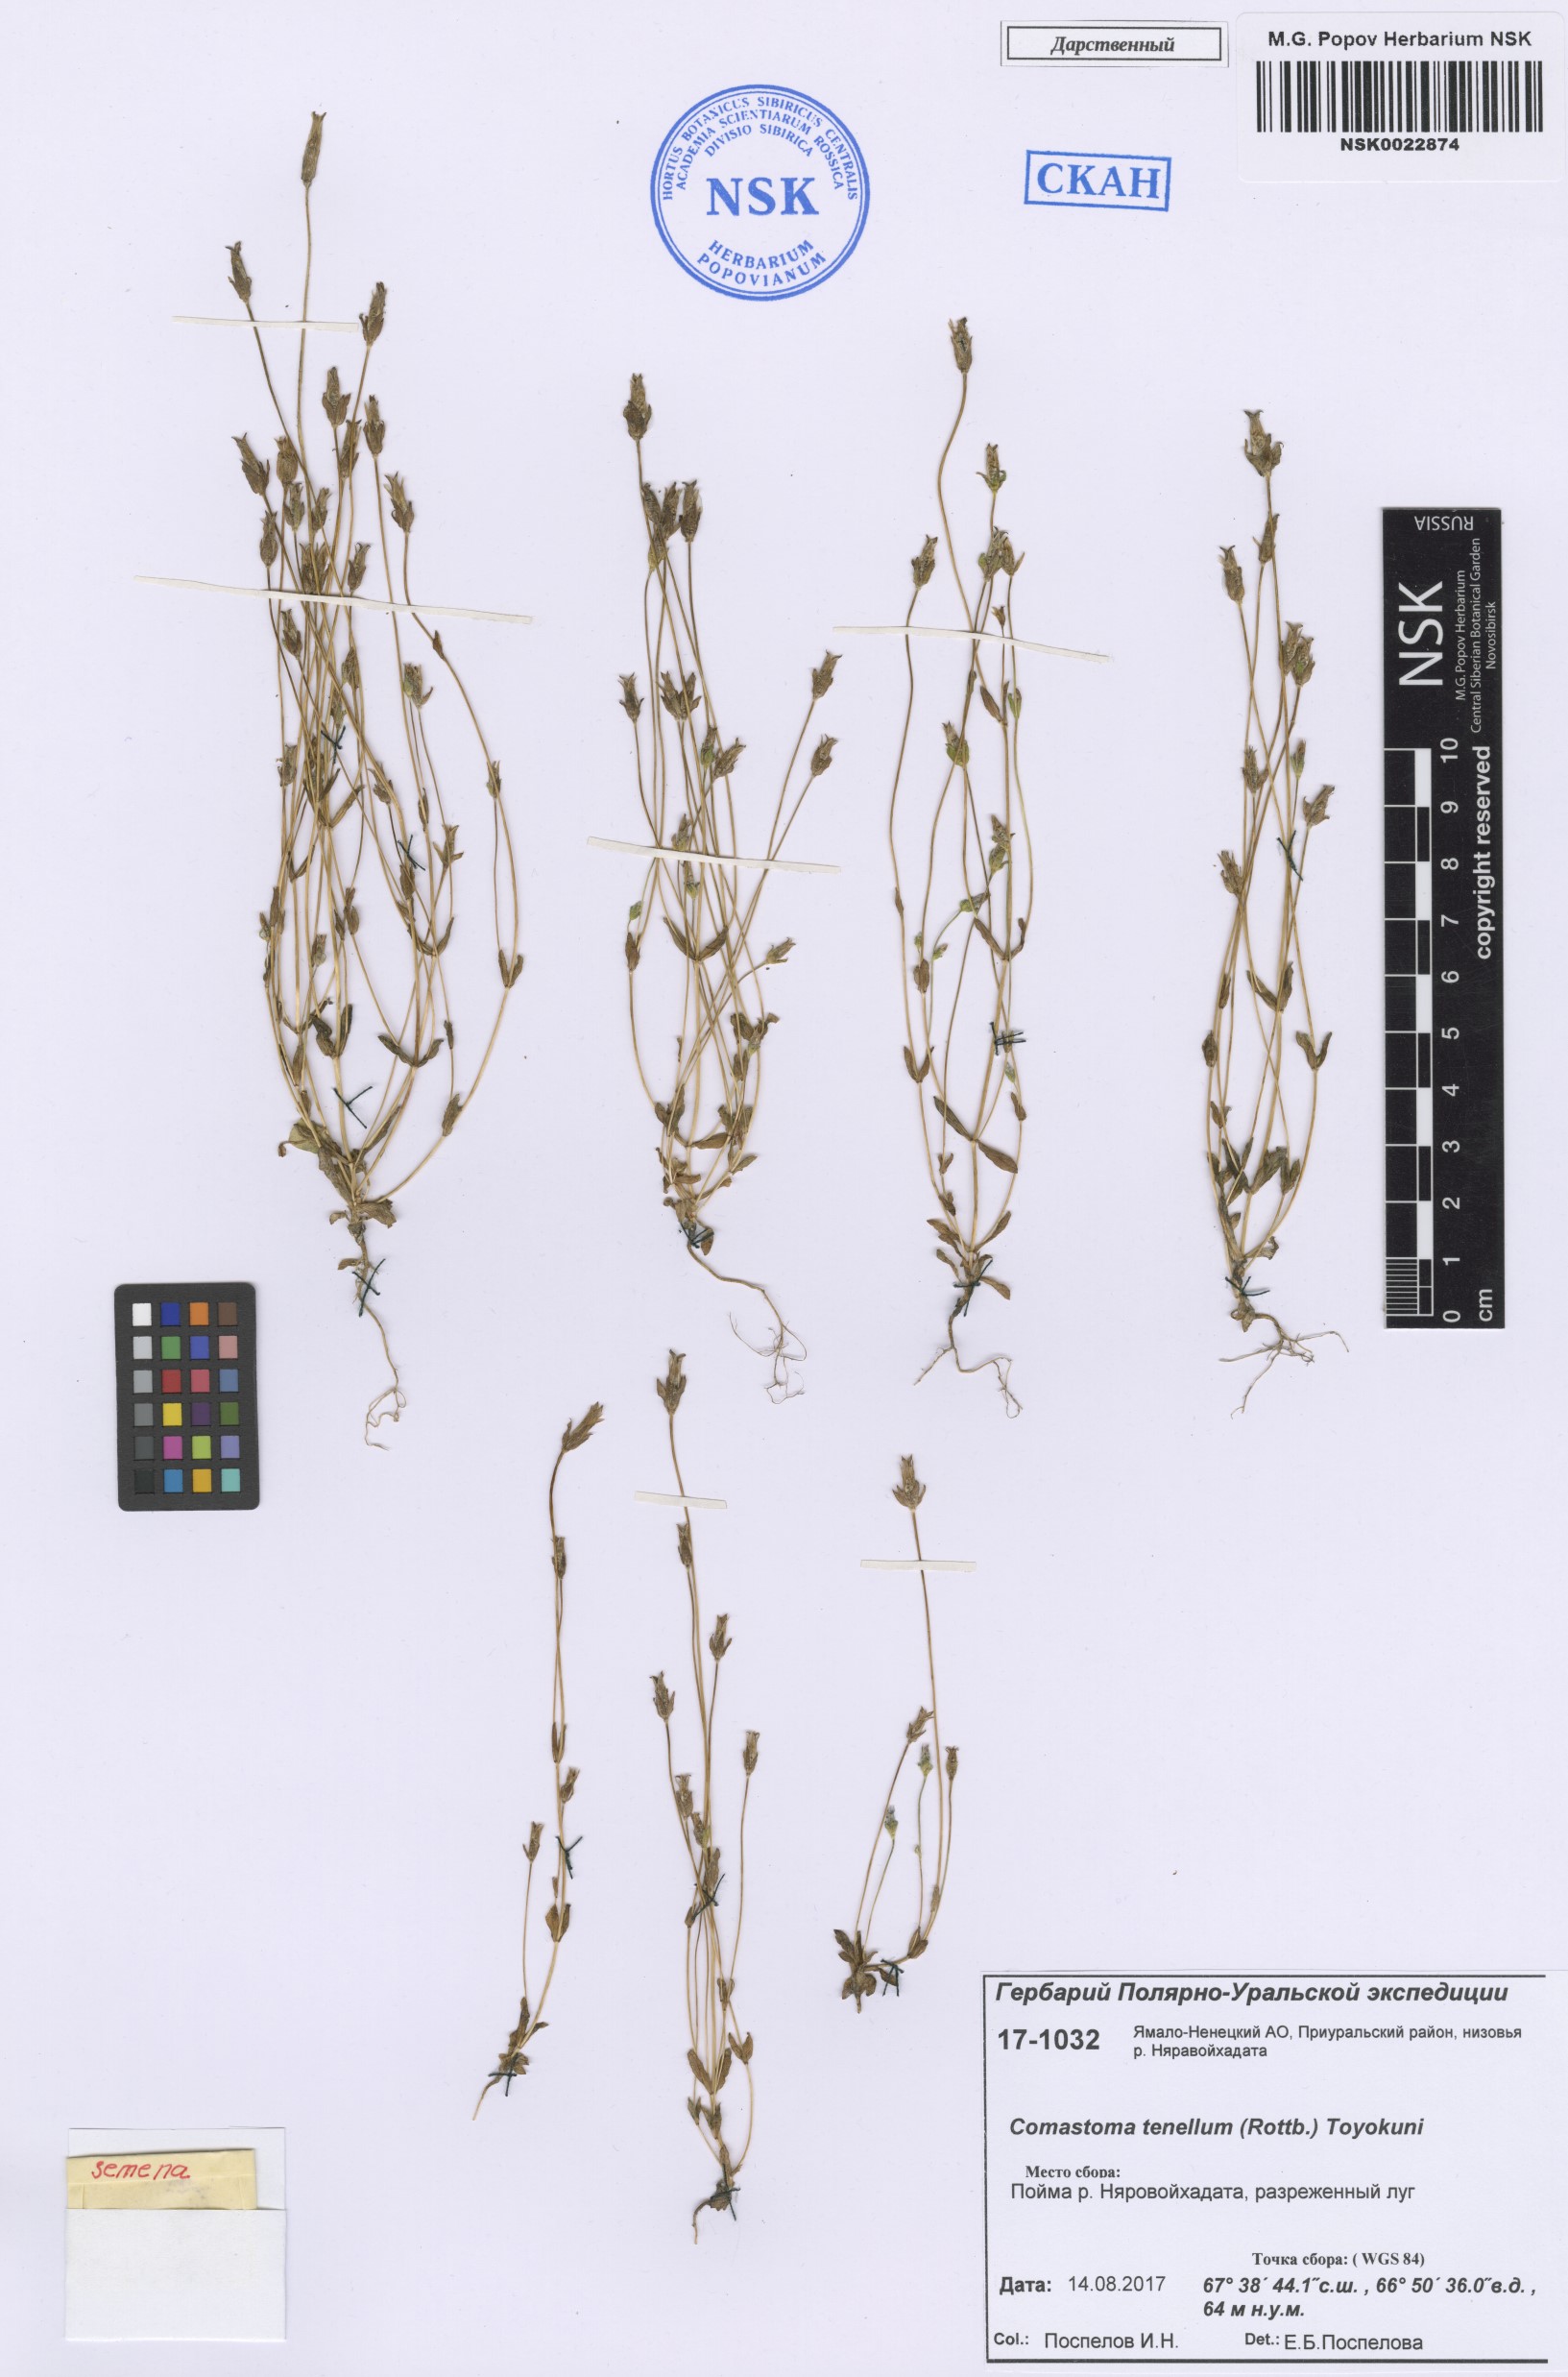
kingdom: Plantae
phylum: Tracheophyta
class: Magnoliopsida
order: Gentianales
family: Gentianaceae
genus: Comastoma
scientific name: Comastoma tenellum
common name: Dane's dwarf gentian
